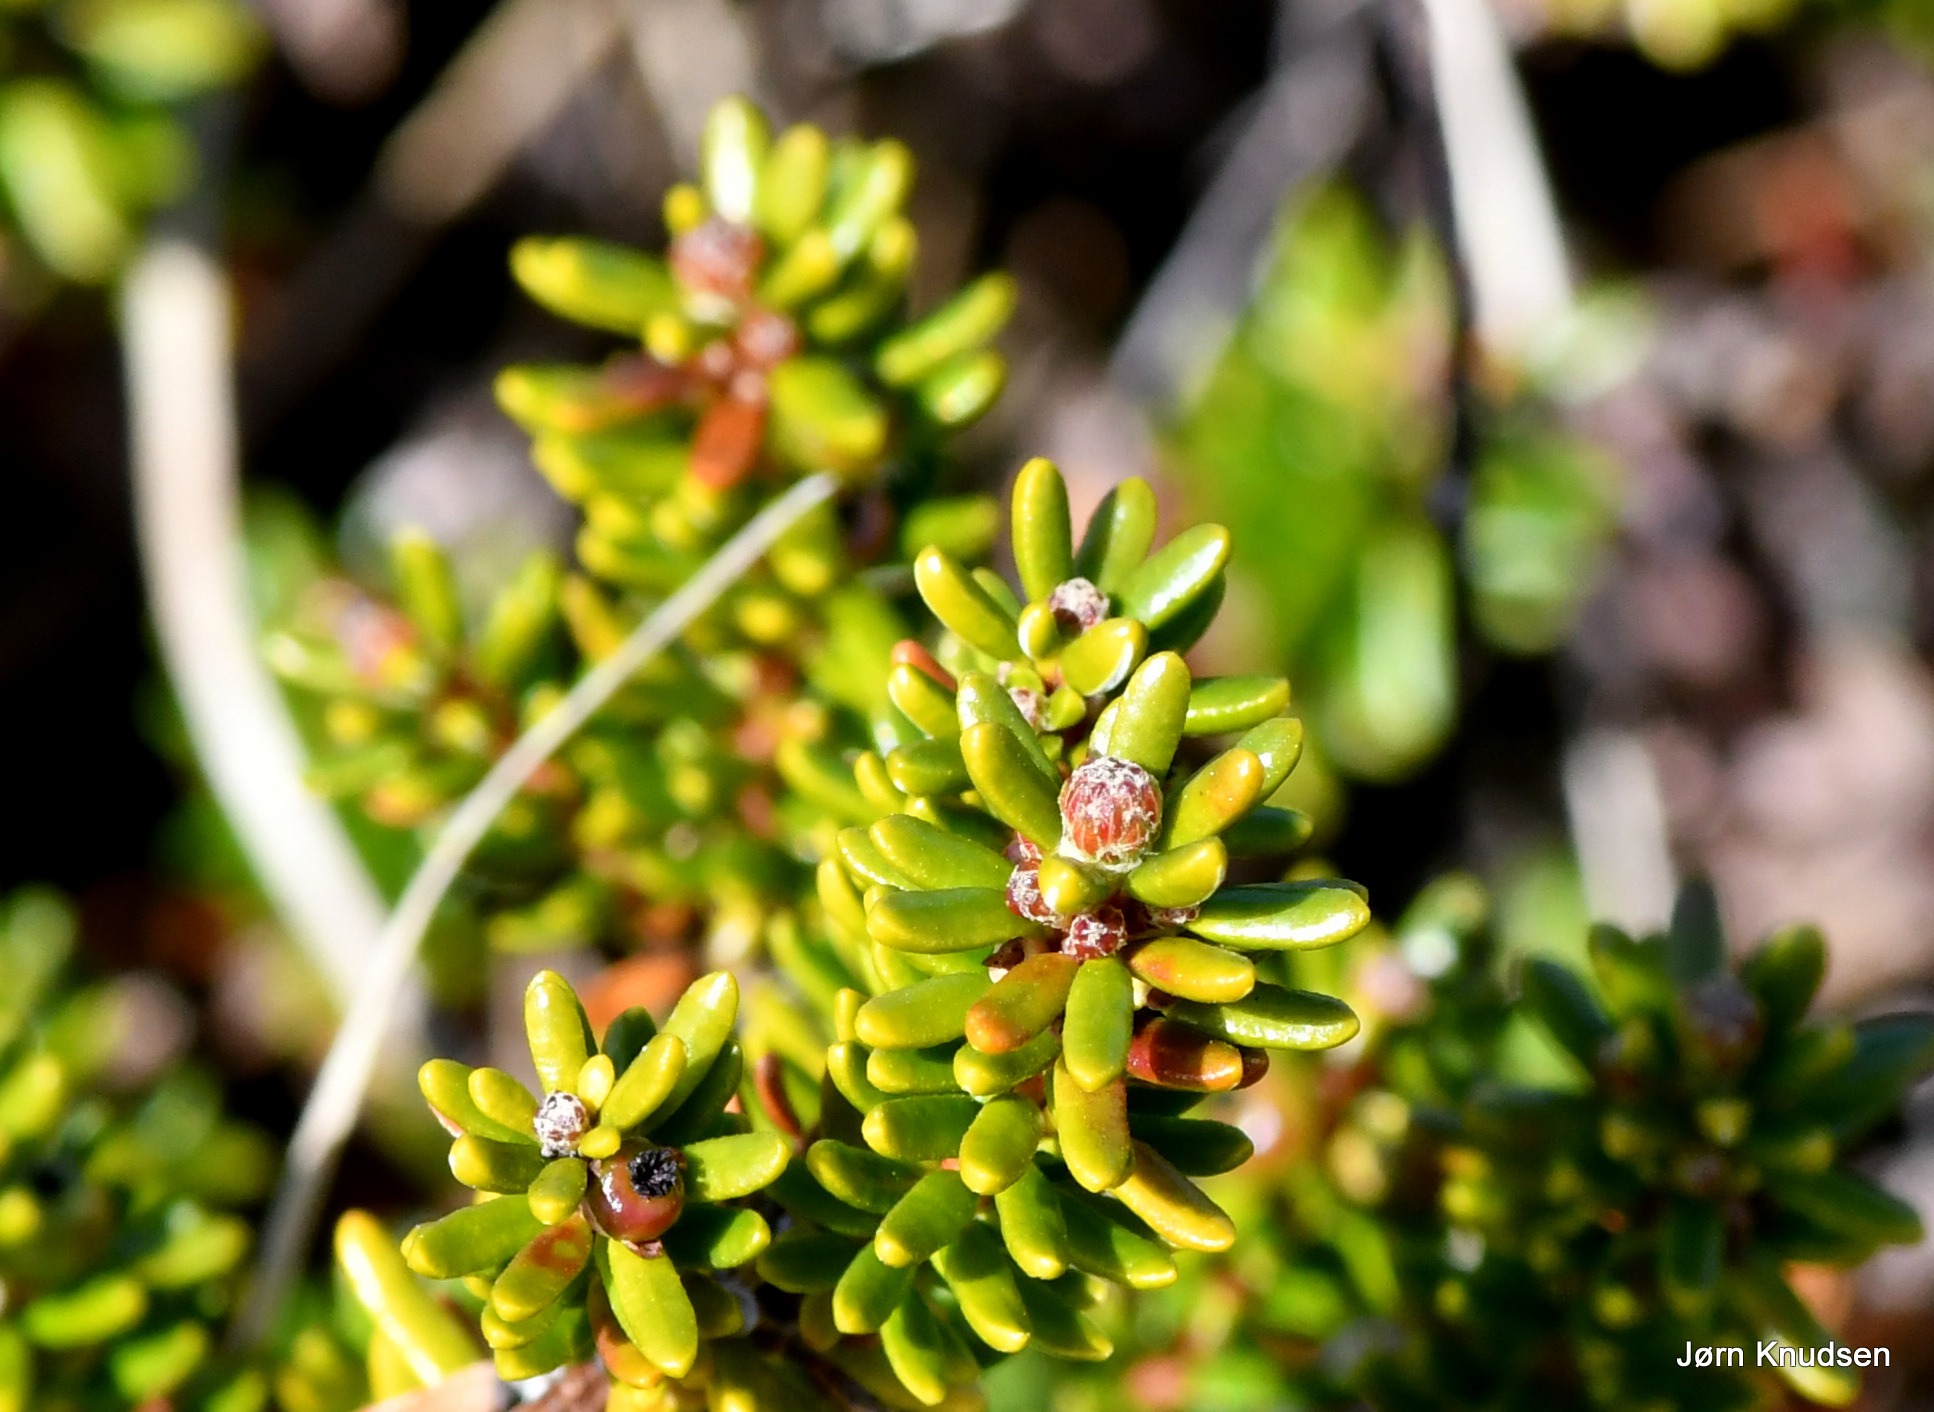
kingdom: Plantae
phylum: Tracheophyta
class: Magnoliopsida
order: Ericales
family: Ericaceae
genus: Empetrum
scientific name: Empetrum nigrum
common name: Revling
